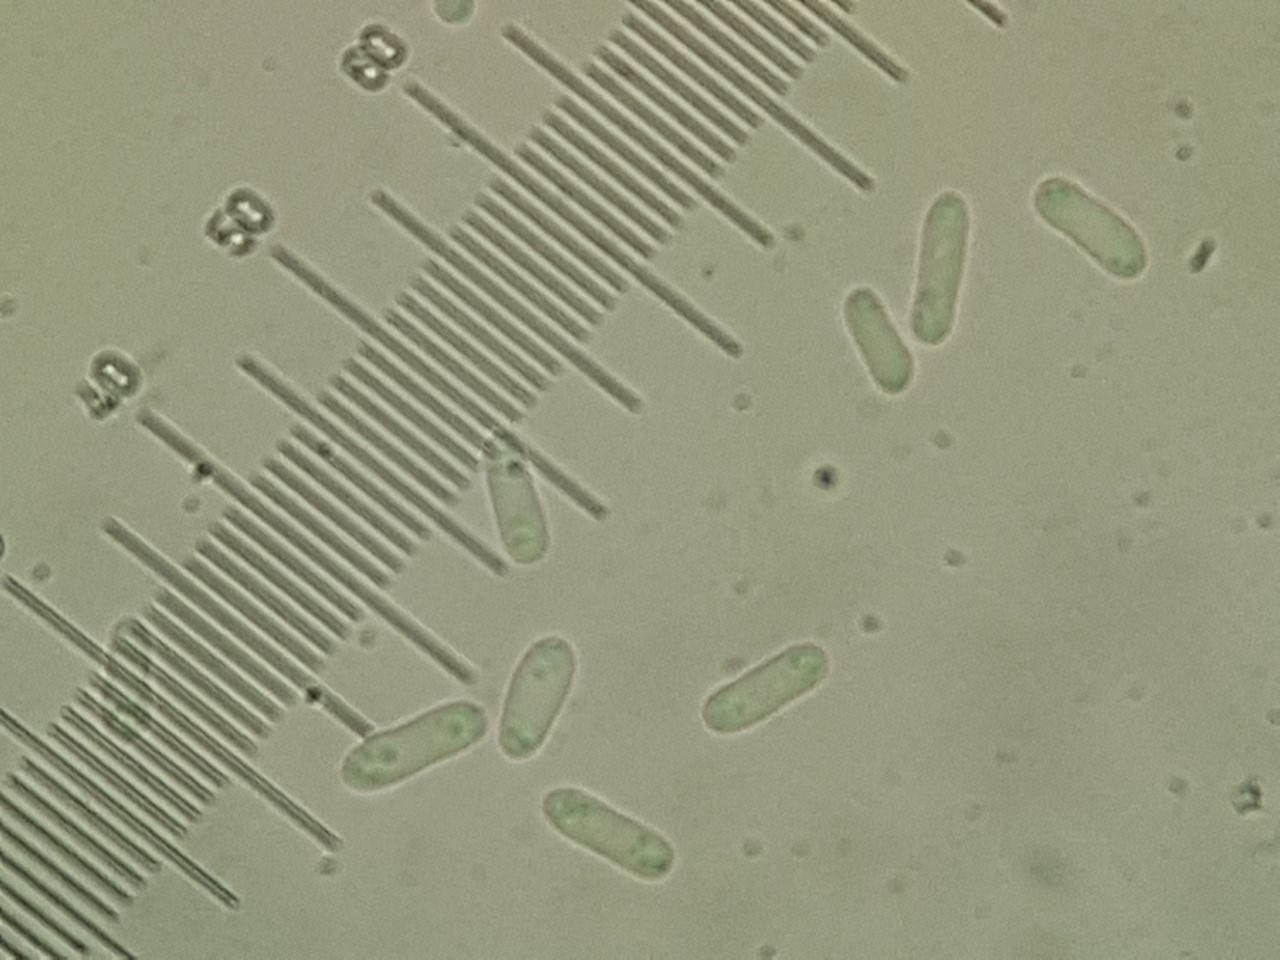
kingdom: Fungi
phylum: Ascomycota
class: Dothideomycetes
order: Pleosporales
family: Didymellaceae
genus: Phoma
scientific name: Phoma
